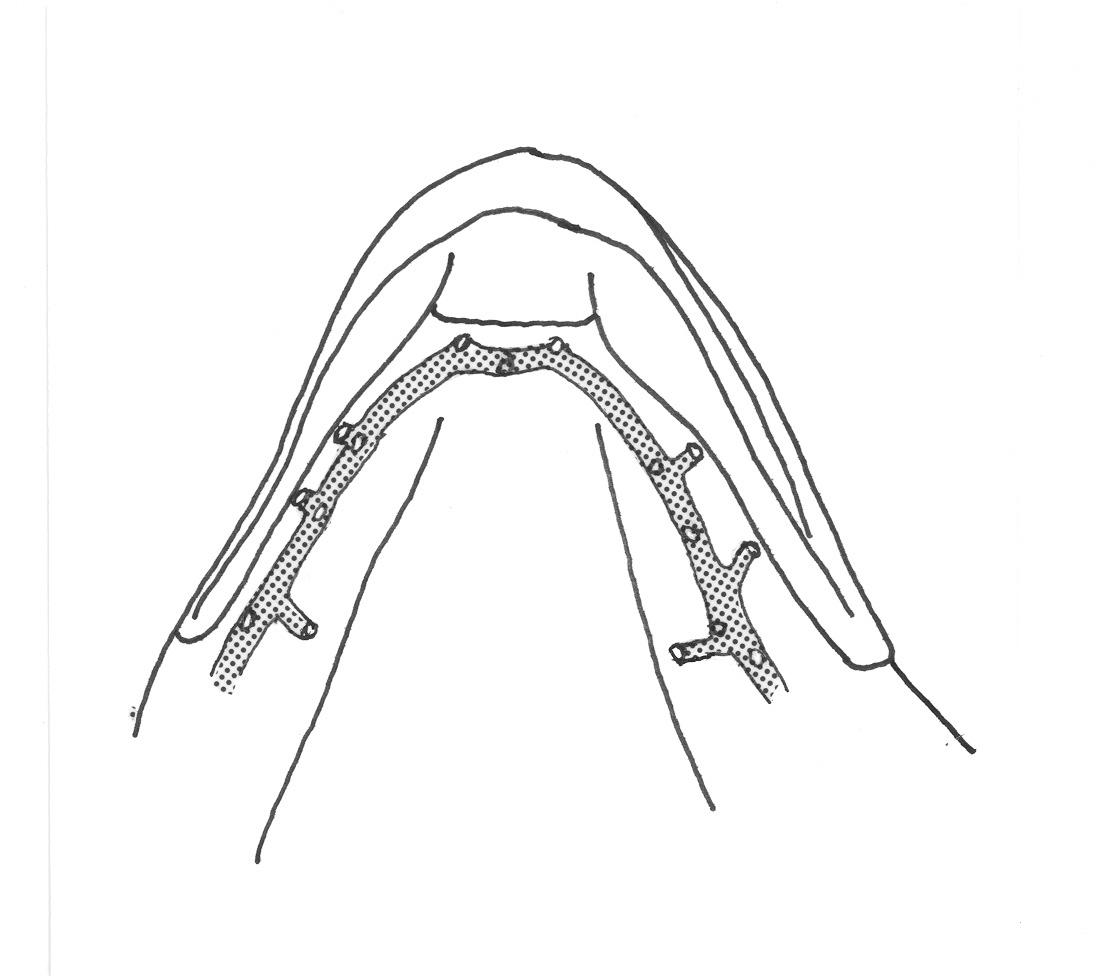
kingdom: Animalia
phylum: Chordata
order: Perciformes
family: Tripterygiidae
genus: Helcogramma
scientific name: Helcogramma ememes
